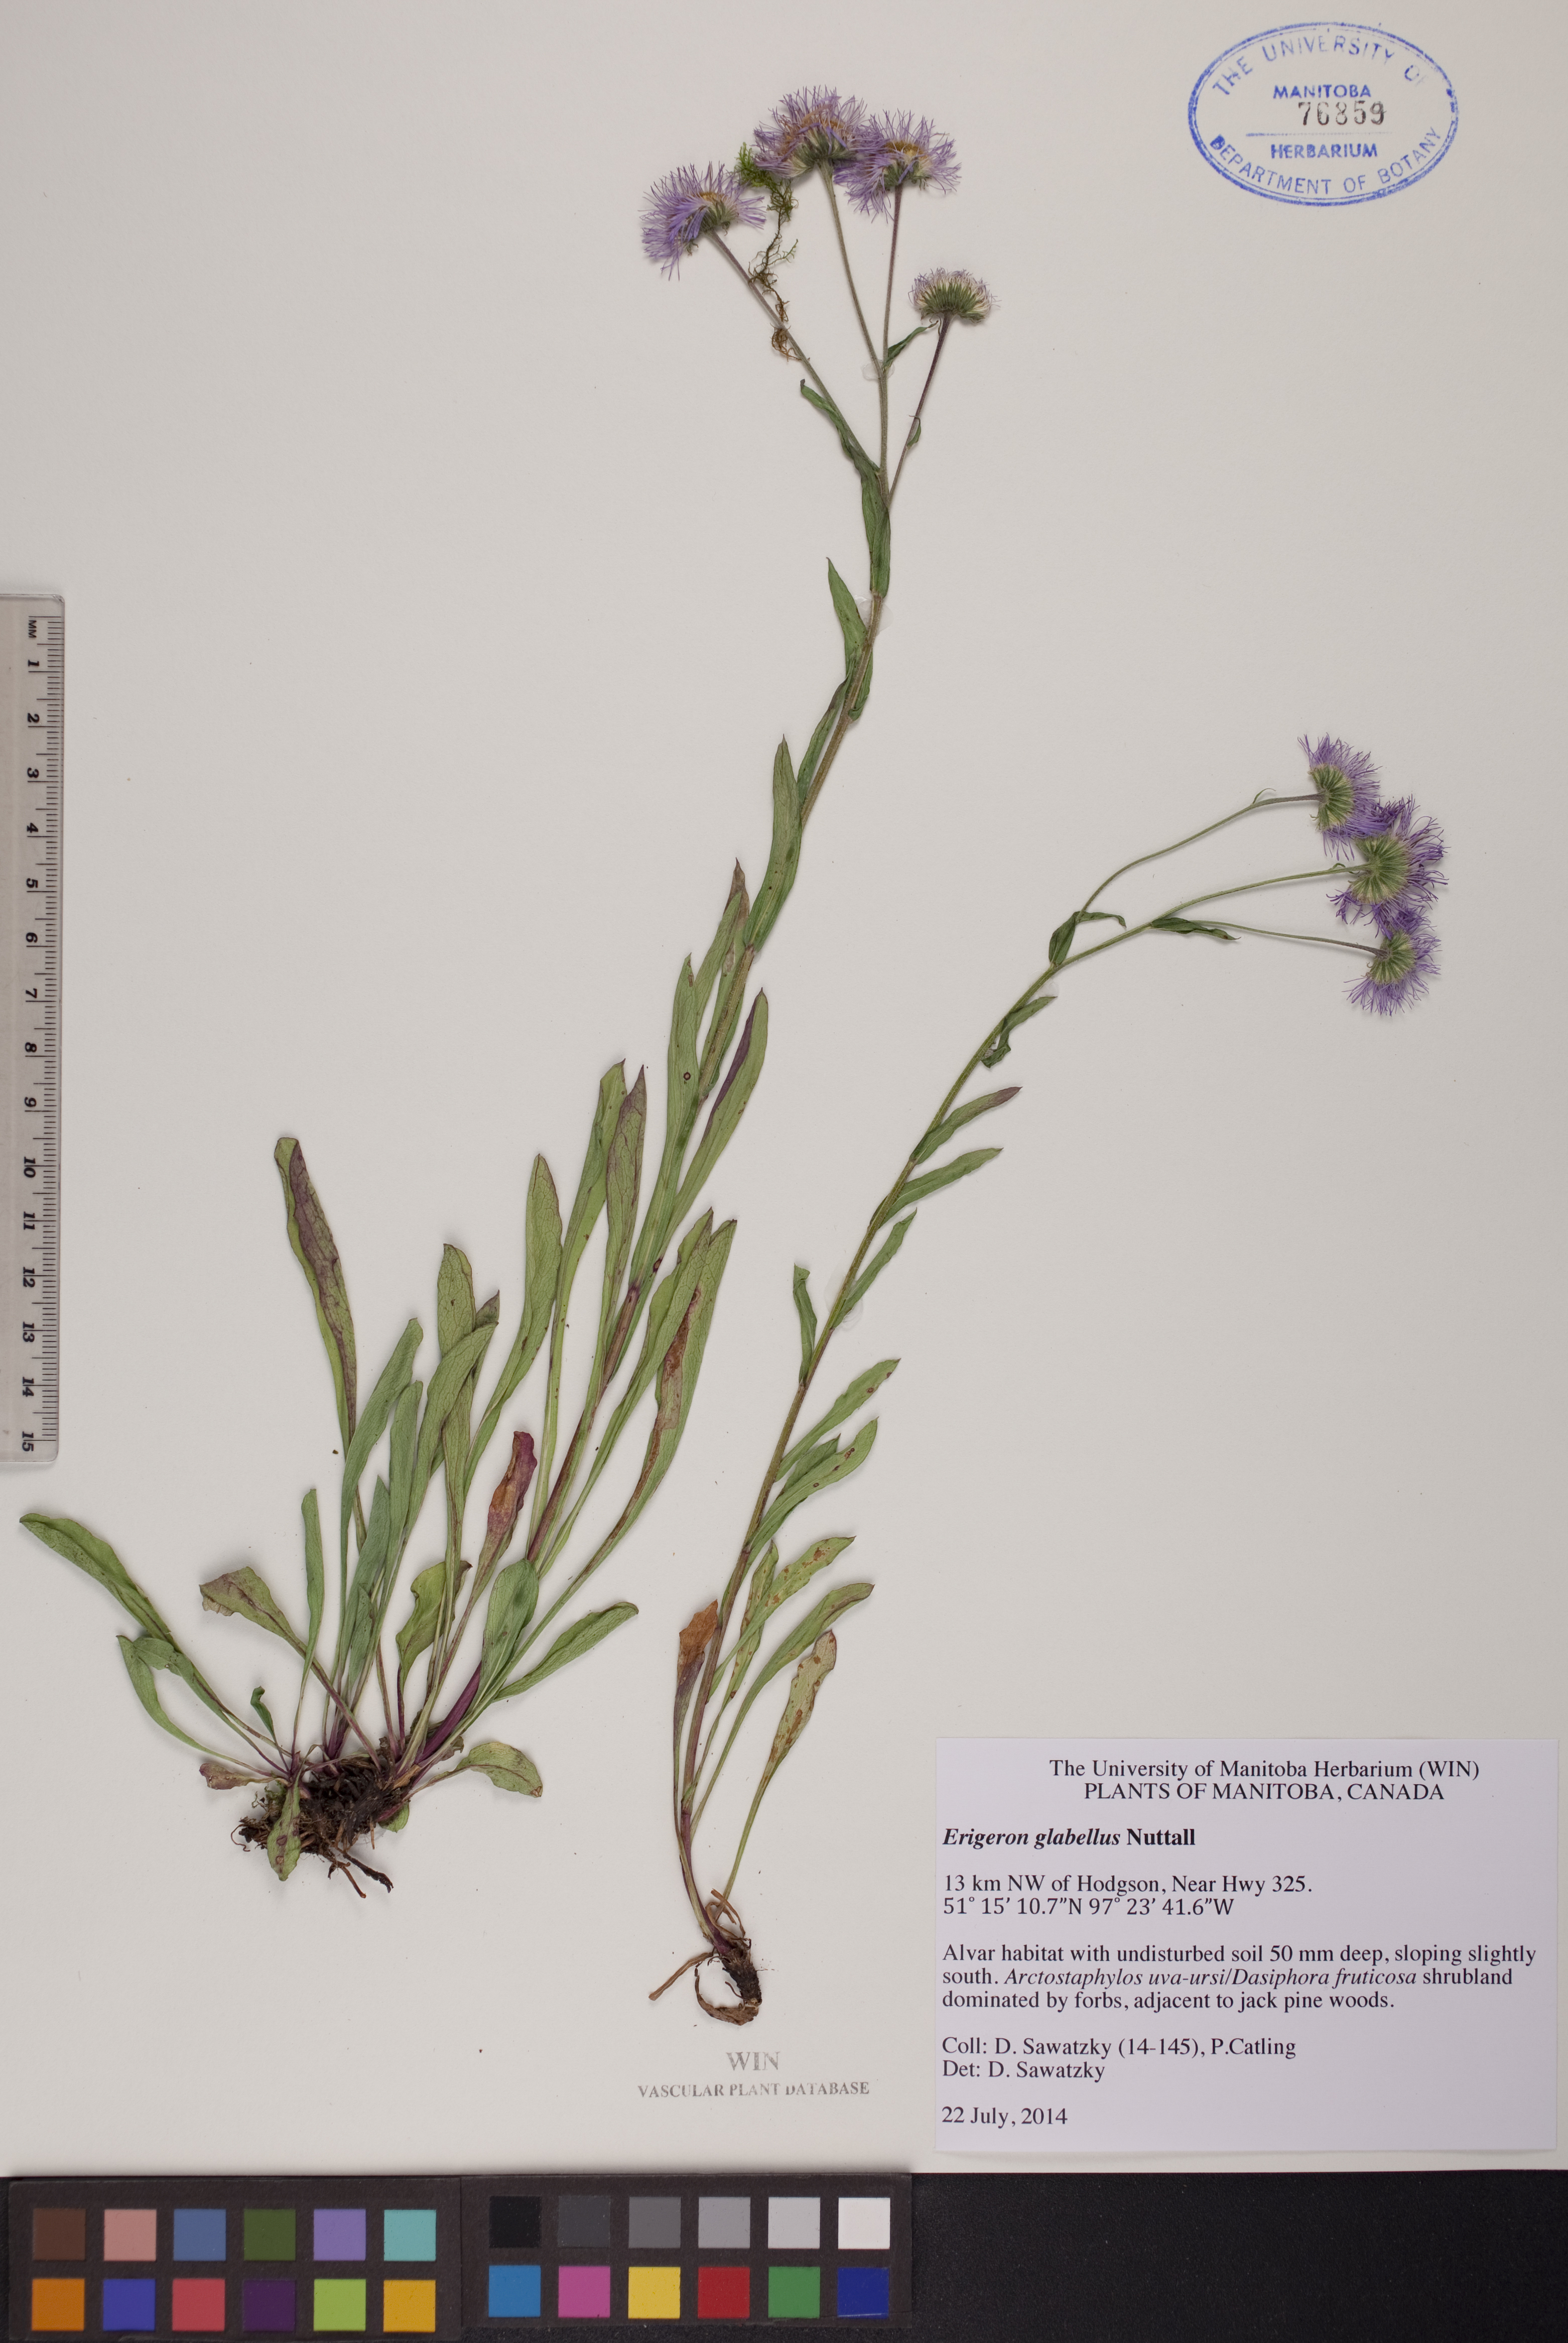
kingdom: Plantae
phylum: Tracheophyta
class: Magnoliopsida
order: Asterales
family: Asteraceae
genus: Erigeron
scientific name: Erigeron glabellus
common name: Smooth fleabane
